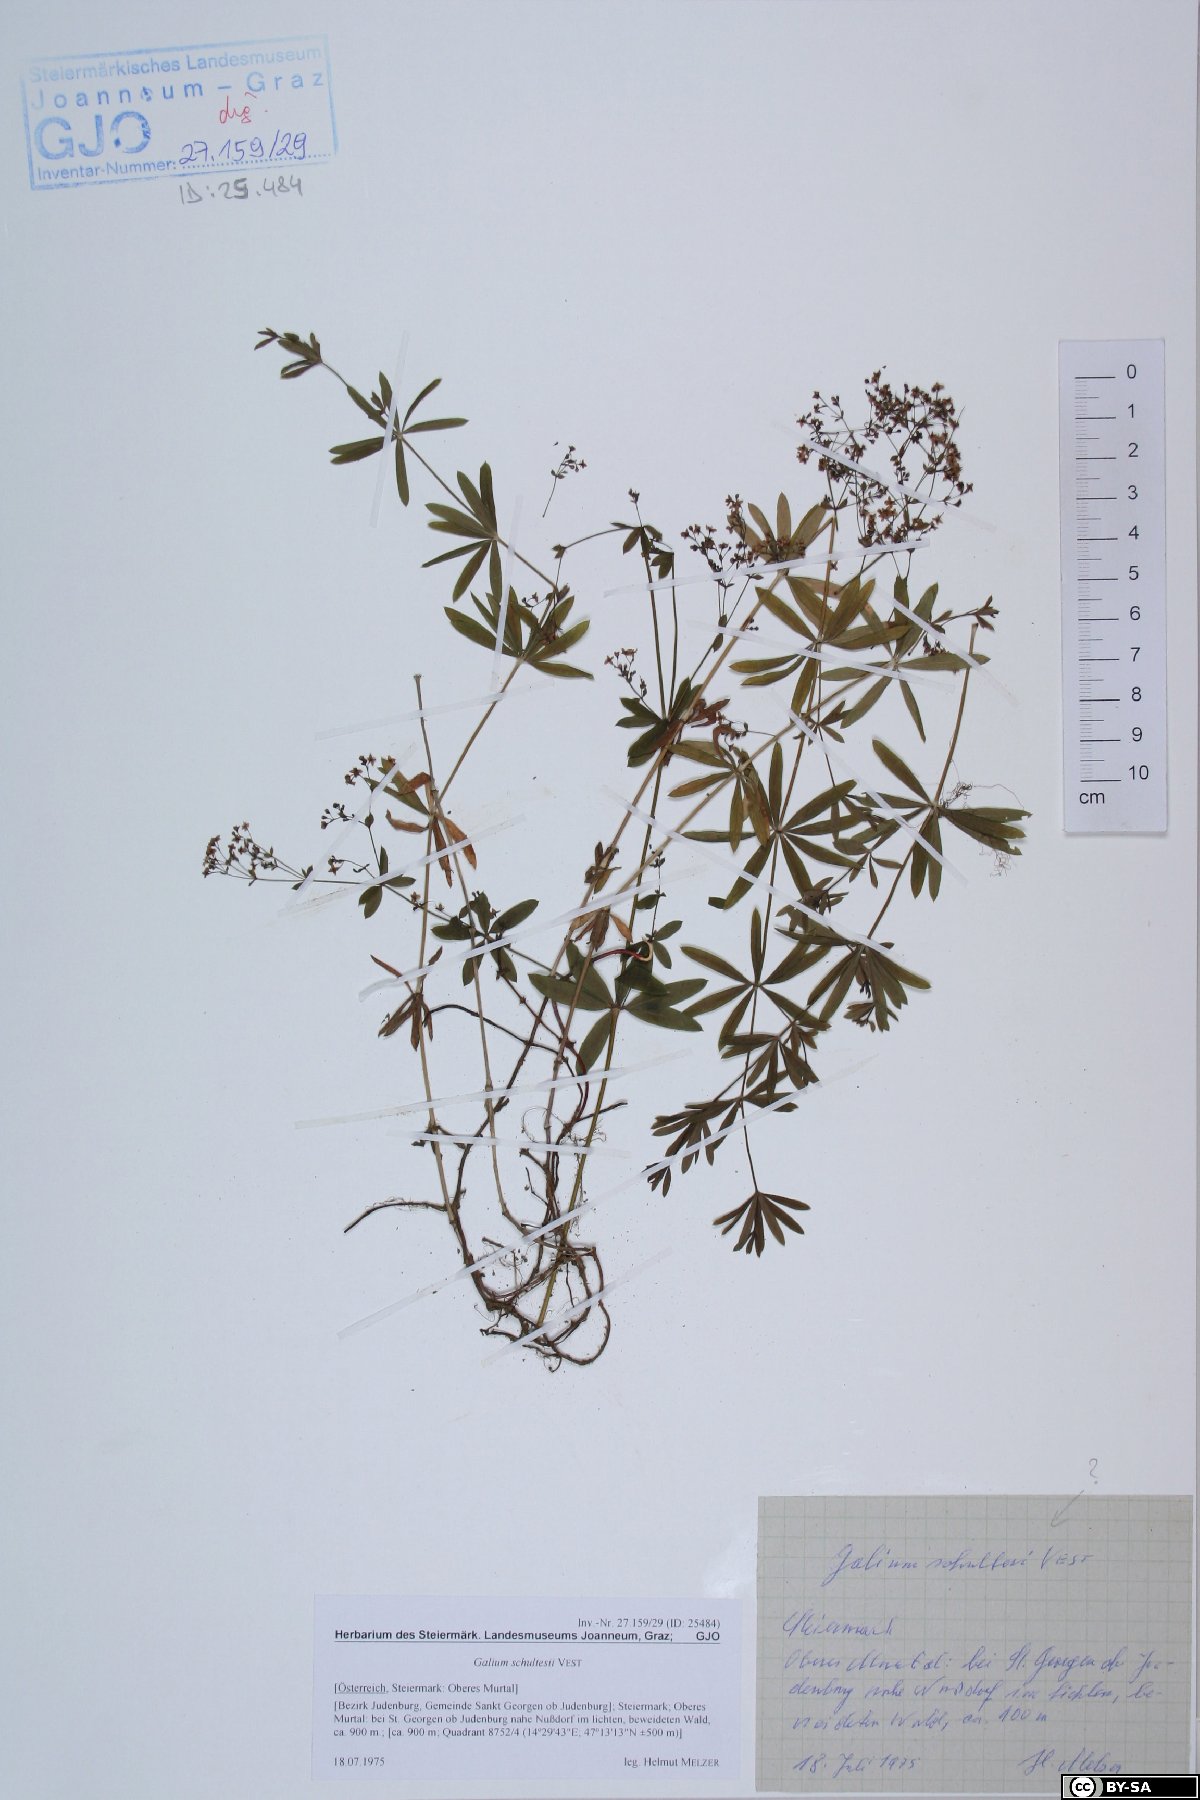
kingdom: Plantae
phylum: Tracheophyta
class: Magnoliopsida
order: Gentianales
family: Rubiaceae
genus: Galium
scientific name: Galium intermedium
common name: Bedstraw
